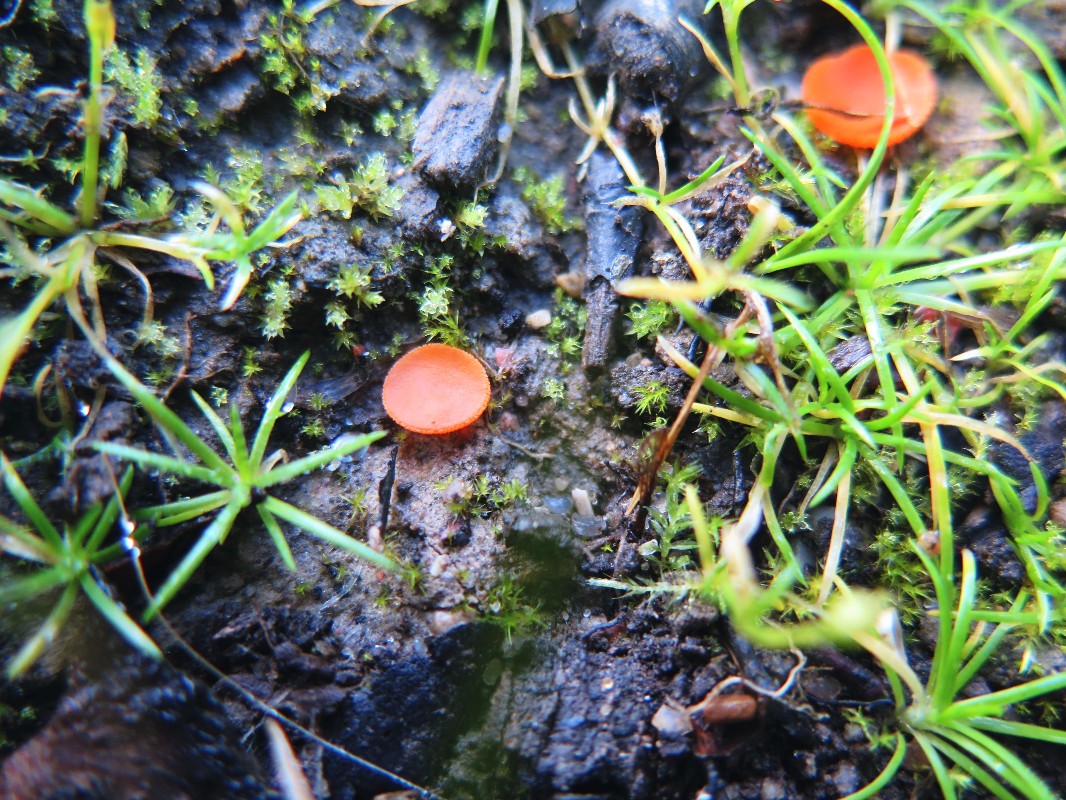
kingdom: Fungi
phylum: Ascomycota
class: Pezizomycetes
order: Pezizales
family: Pyronemataceae
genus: Aleuria
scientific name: Aleuria aurantia
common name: almindelig orangebæger
